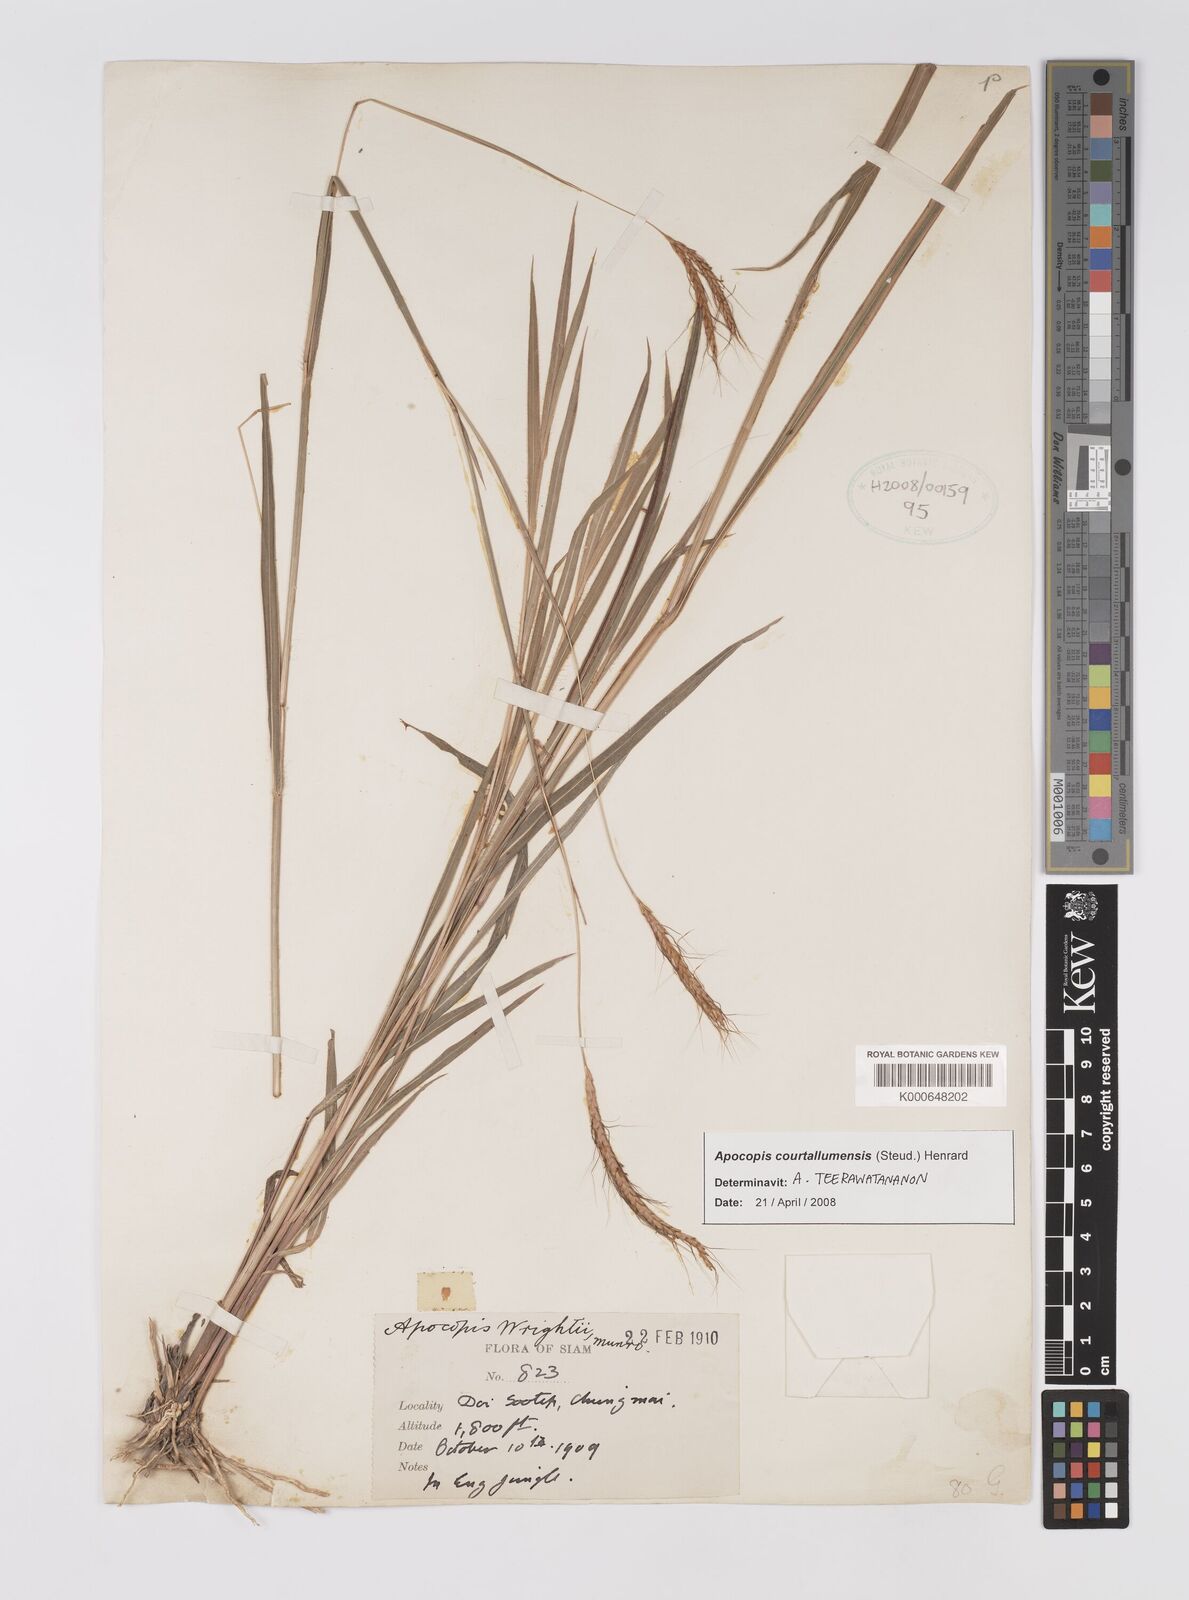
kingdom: Plantae
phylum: Tracheophyta
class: Liliopsida
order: Poales
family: Poaceae
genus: Apocopis
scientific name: Apocopis courtallumensis
